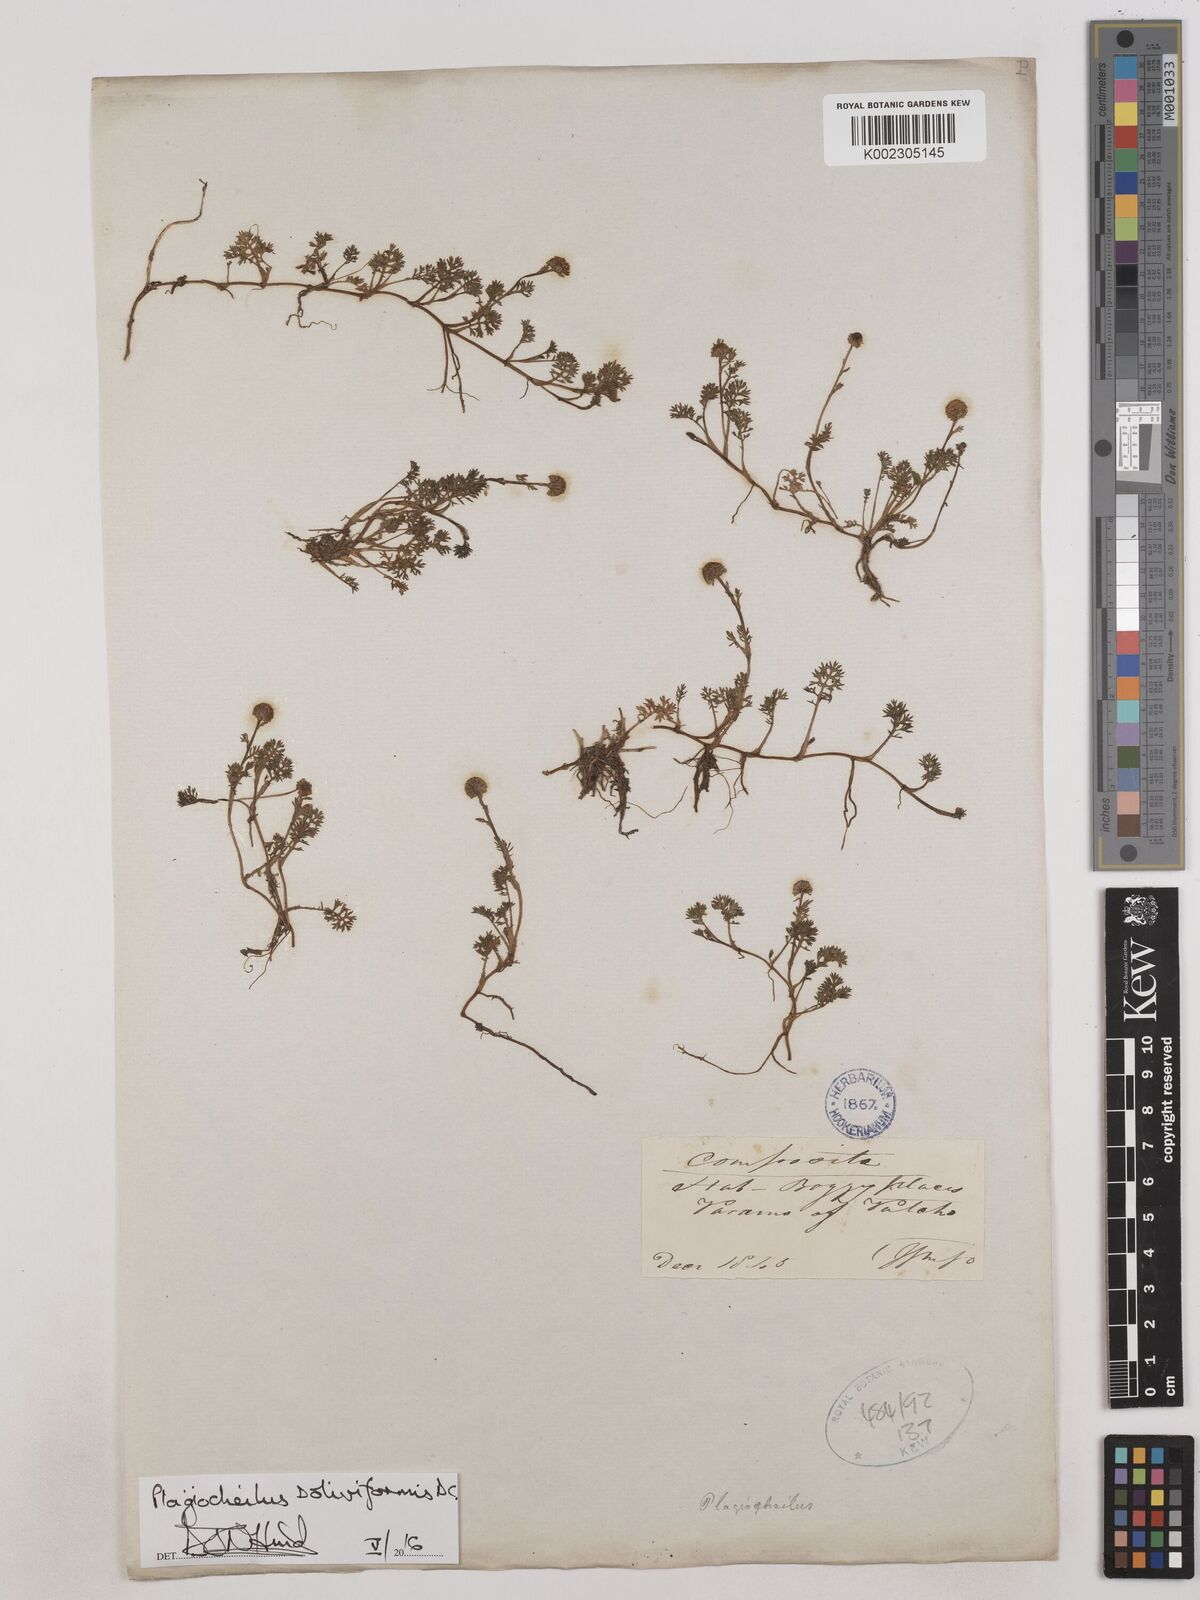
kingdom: Plantae
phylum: Tracheophyta
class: Magnoliopsida
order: Asterales
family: Asteraceae
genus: Plagiocheilus
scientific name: Plagiocheilus soliviformis
